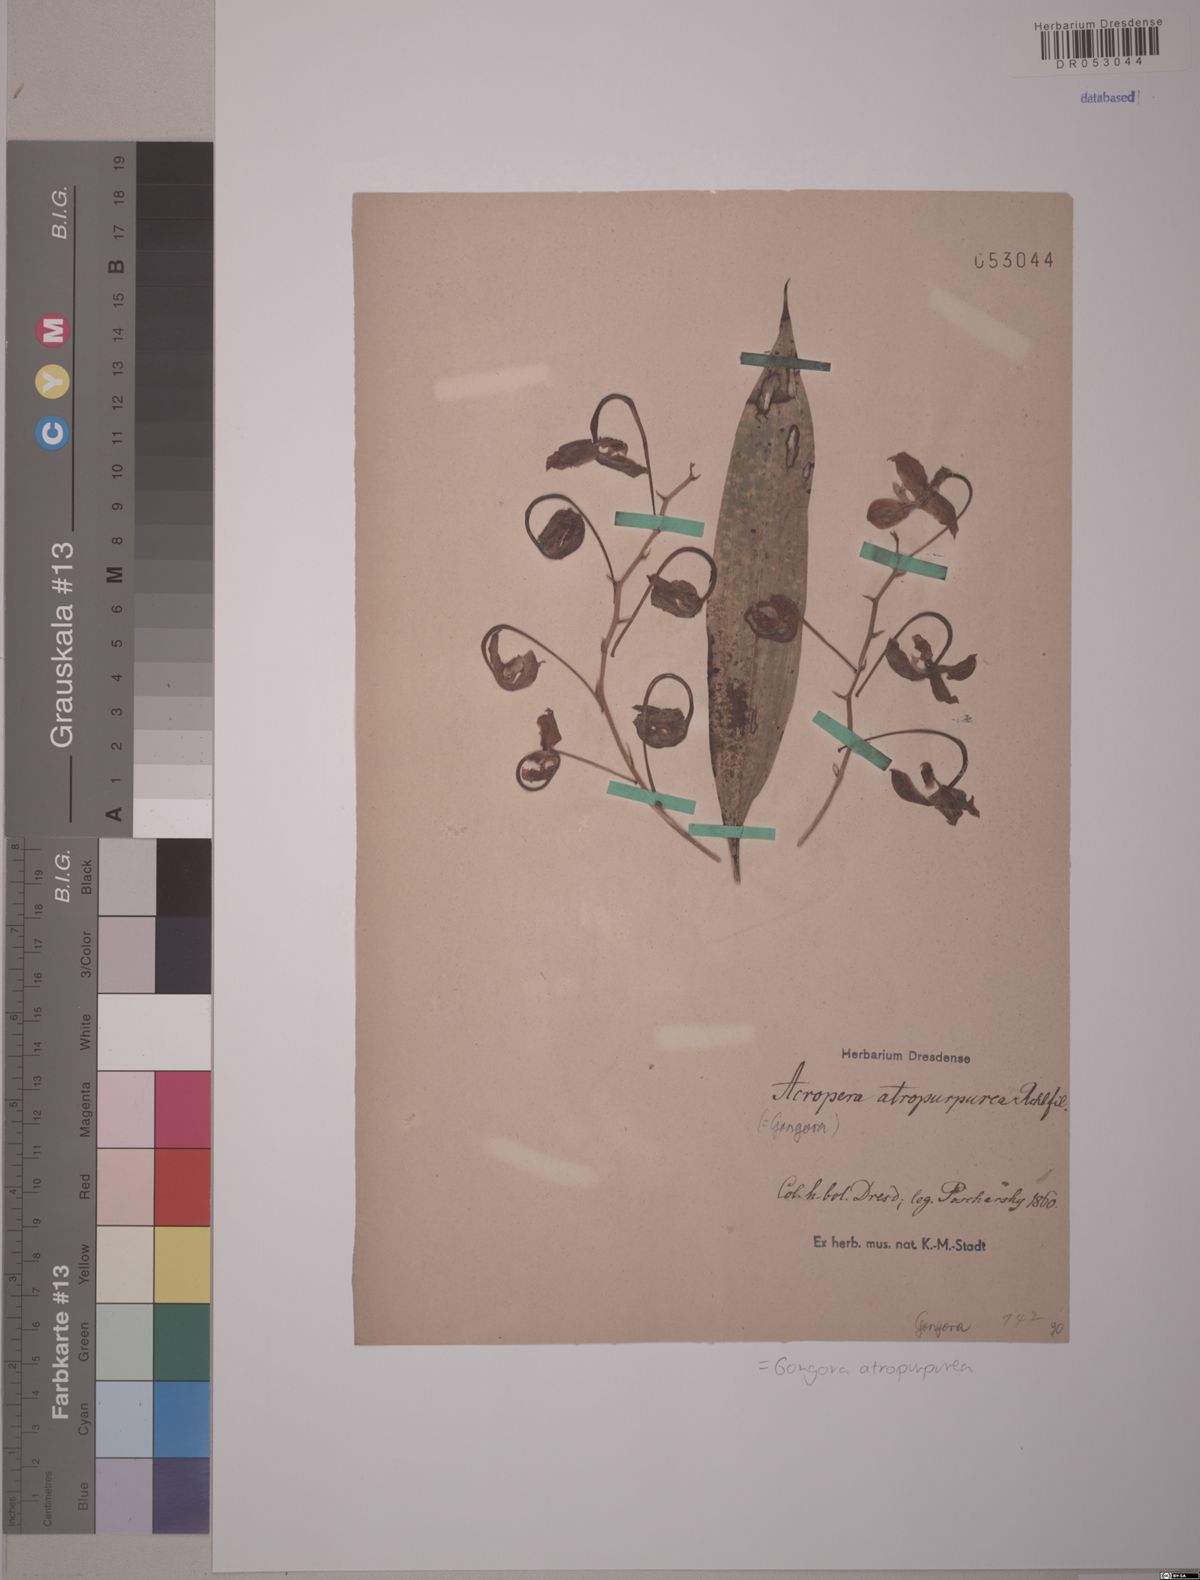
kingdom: Plantae
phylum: Tracheophyta
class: Liliopsida
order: Asparagales
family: Orchidaceae
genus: Gongora
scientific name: Gongora atropurpurea
